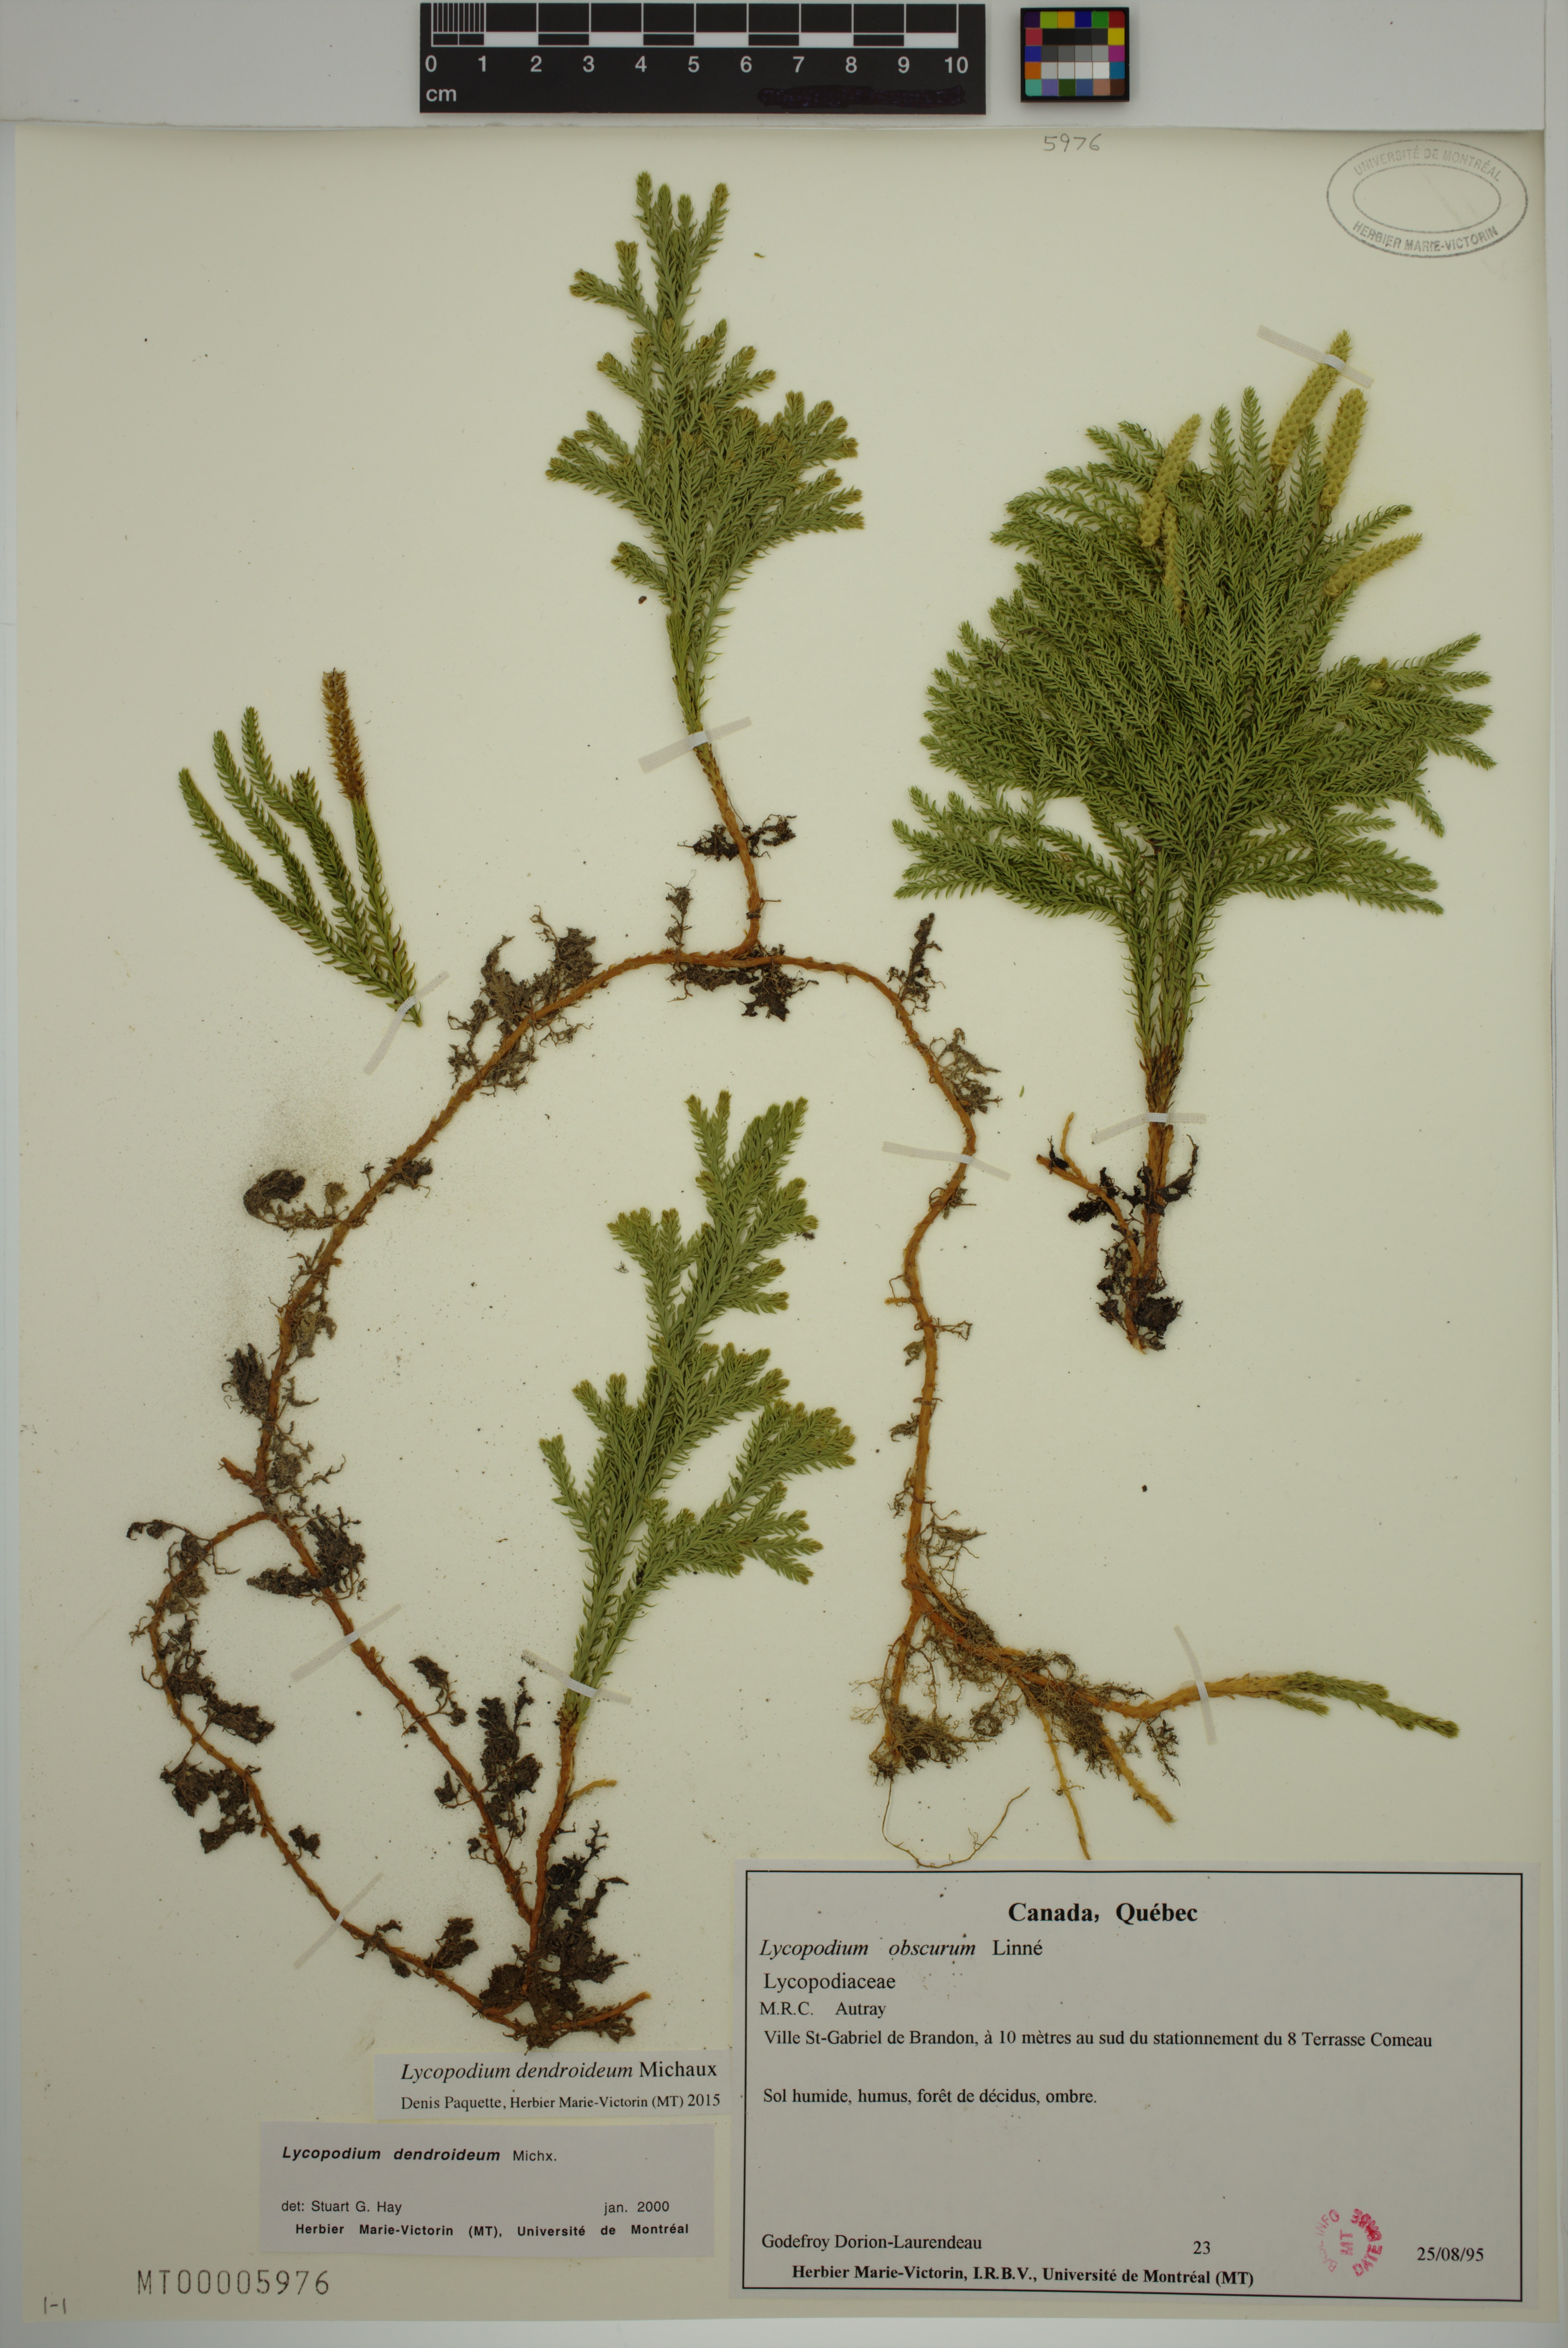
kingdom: Plantae
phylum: Tracheophyta
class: Lycopodiopsida
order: Lycopodiales
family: Lycopodiaceae
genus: Dendrolycopodium
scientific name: Dendrolycopodium dendroideum
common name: Northern tree-clubmoss
